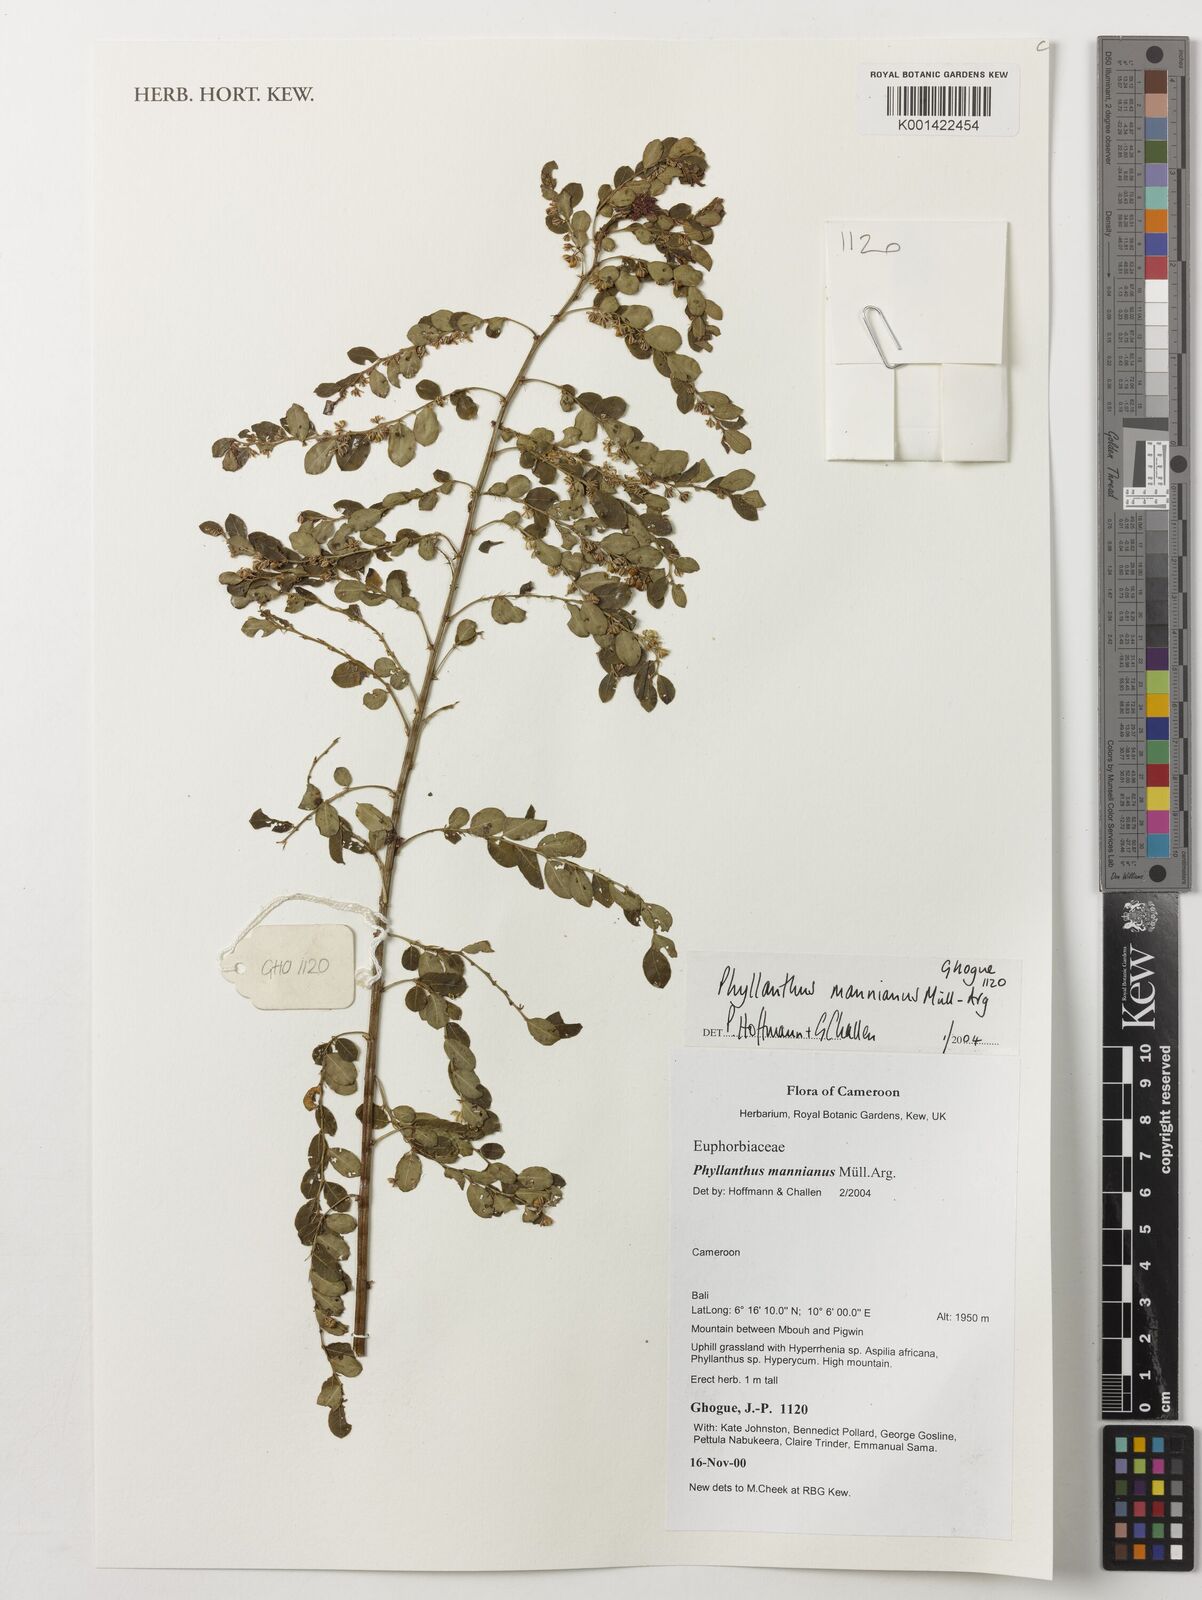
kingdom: Plantae
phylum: Tracheophyta
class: Magnoliopsida
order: Malpighiales
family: Phyllanthaceae
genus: Phyllanthus
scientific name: Phyllanthus mannianus
